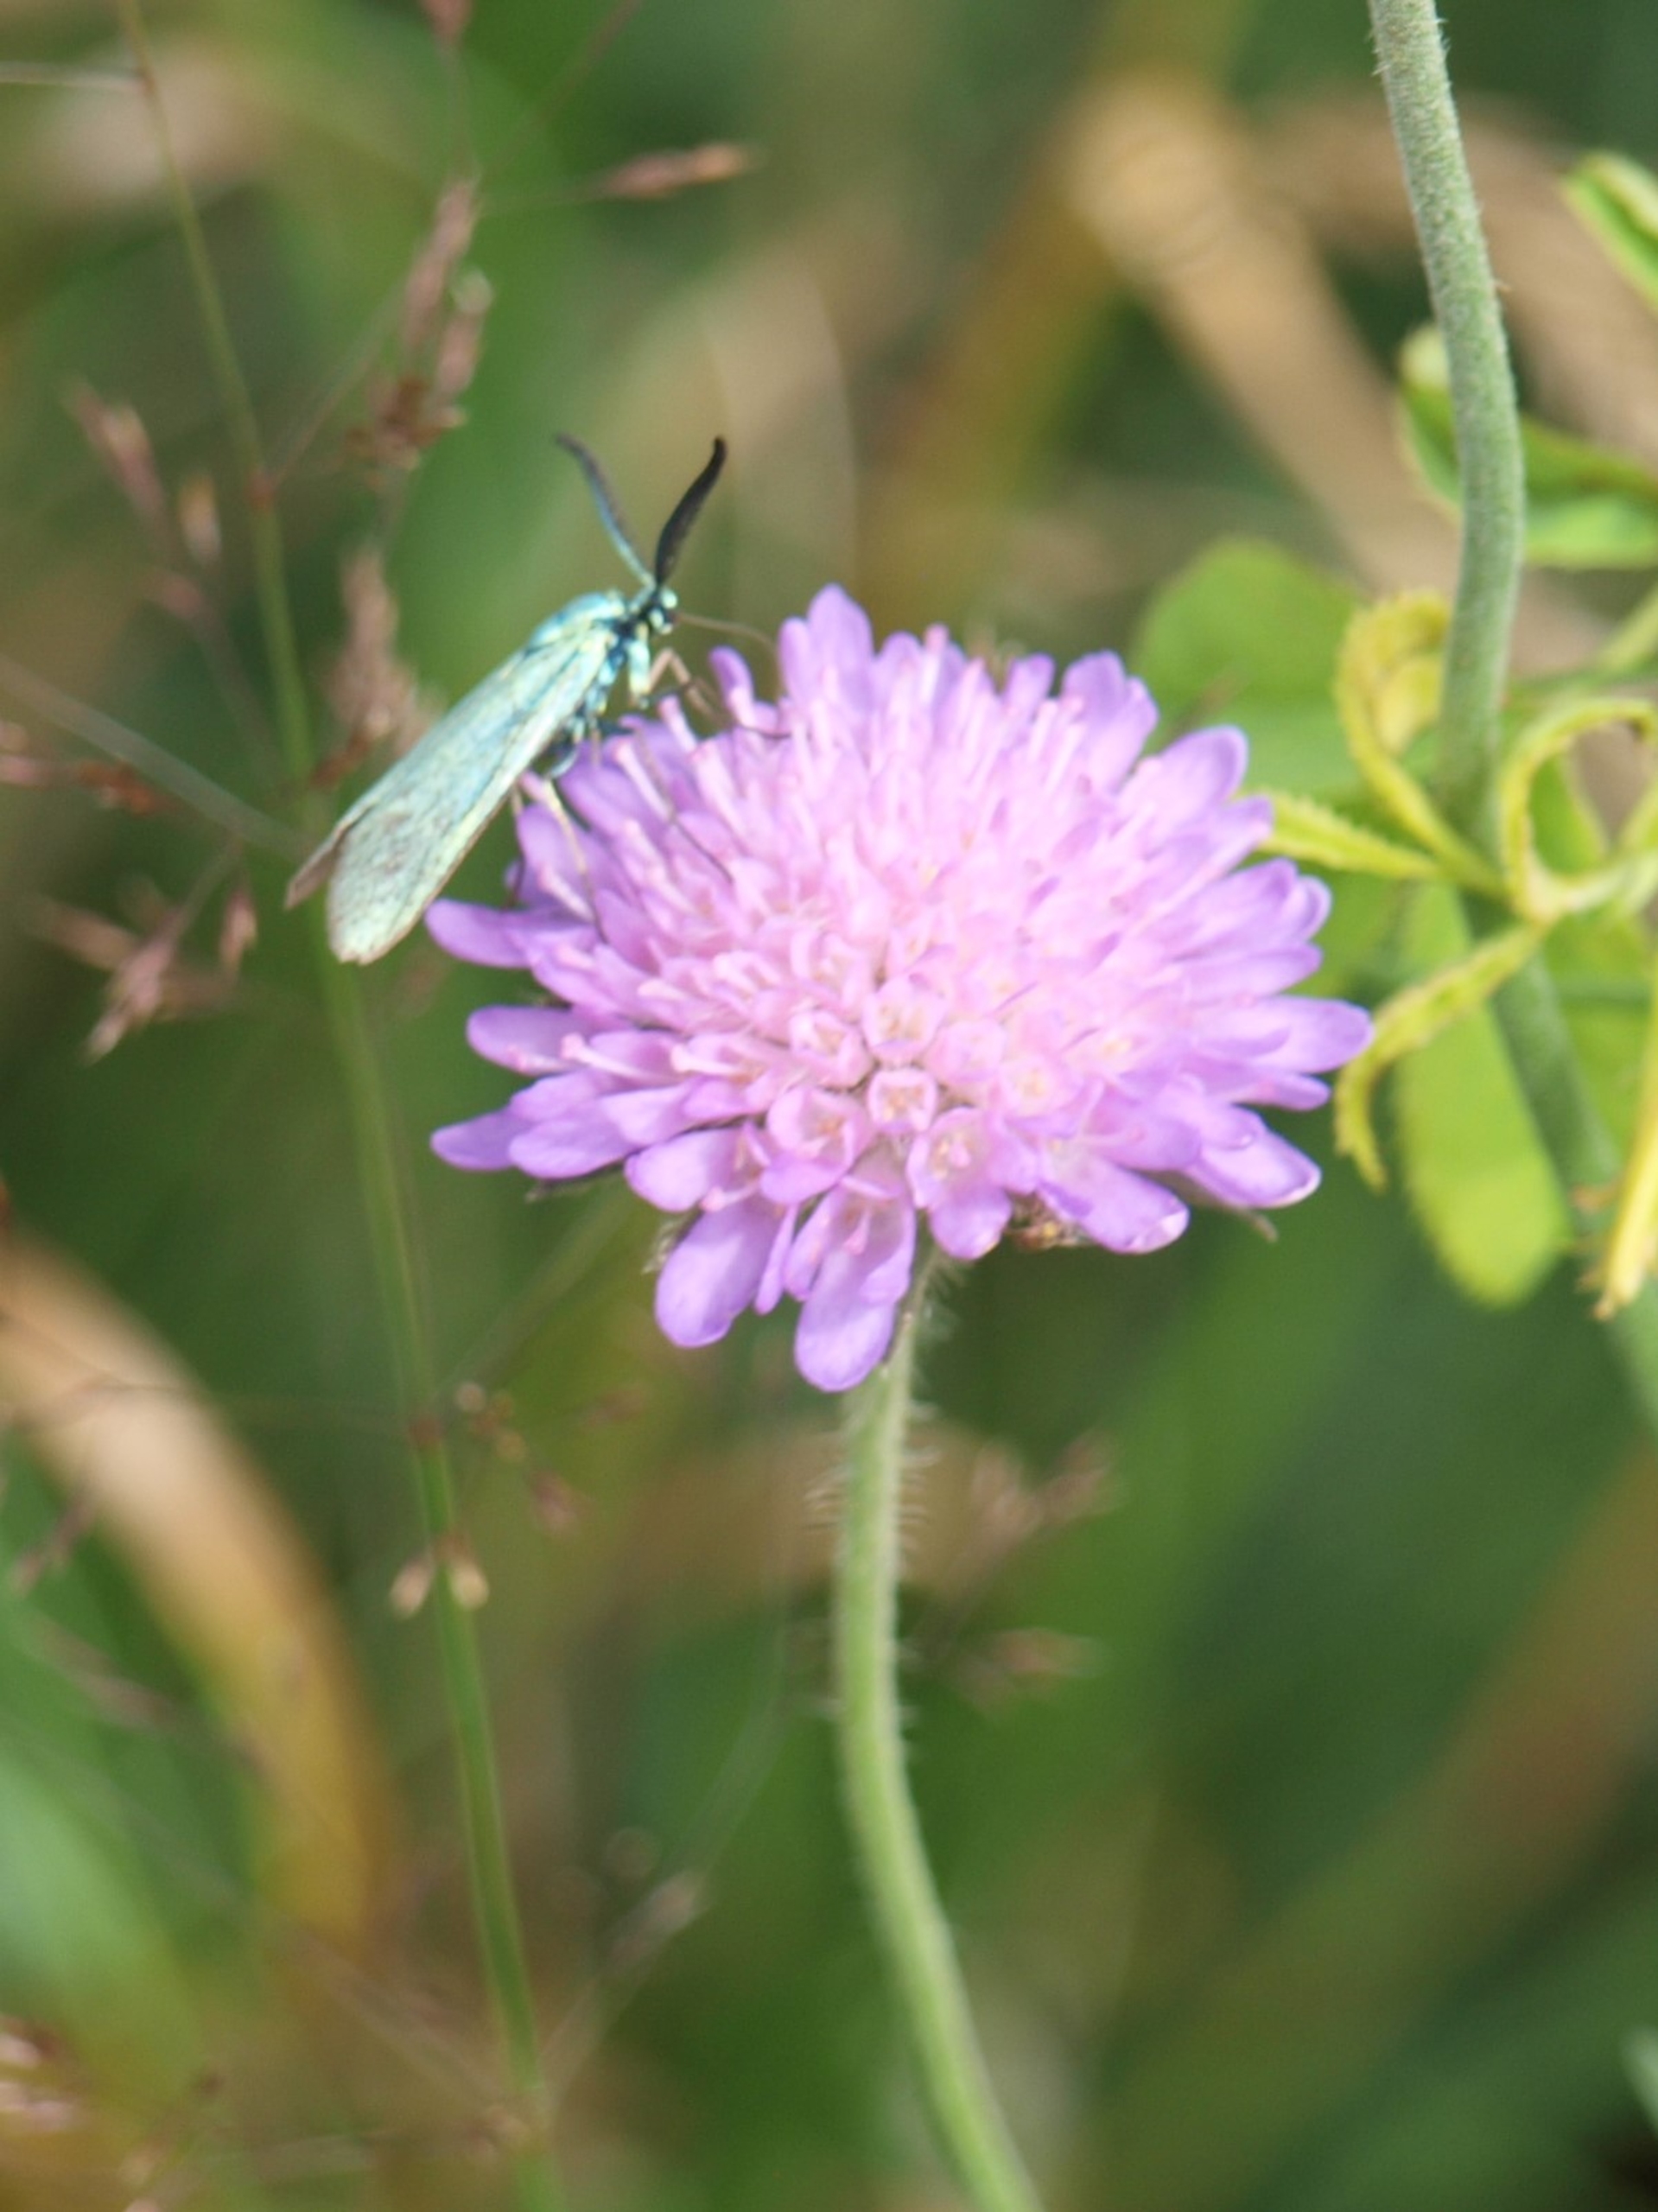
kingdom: Animalia
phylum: Arthropoda
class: Insecta
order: Lepidoptera
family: Zygaenidae
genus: Adscita
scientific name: Adscita statices
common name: Metalvinge
